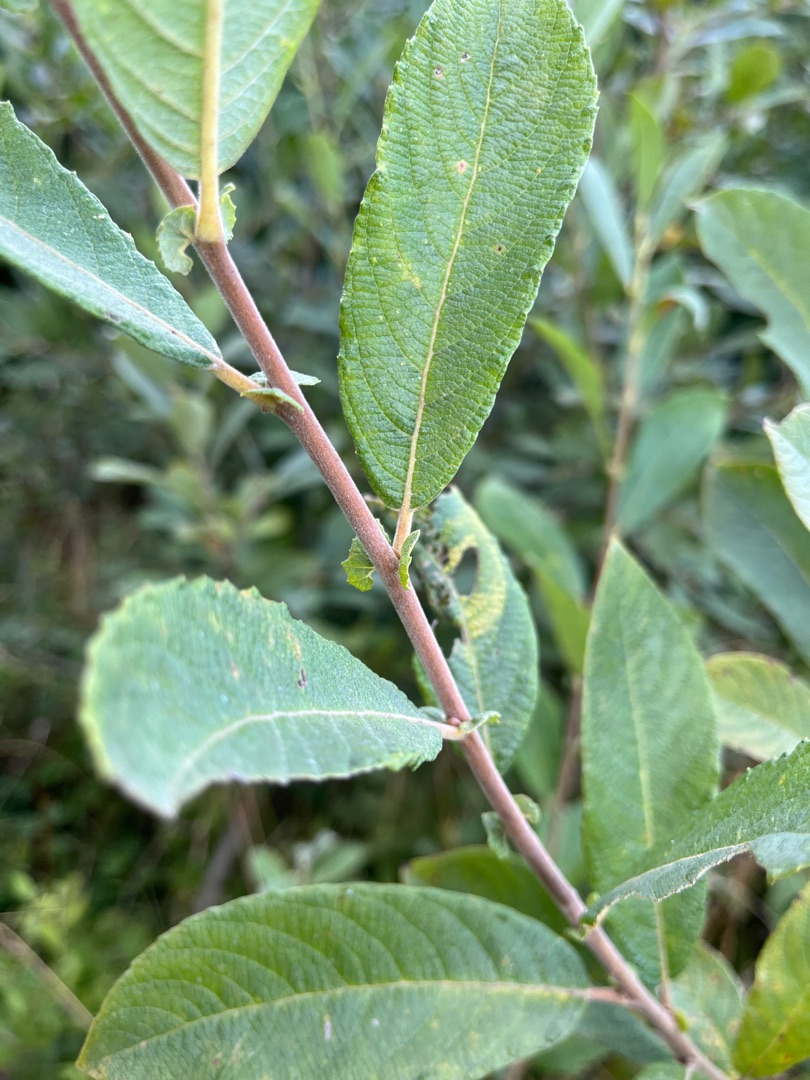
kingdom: Plantae
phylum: Tracheophyta
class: Magnoliopsida
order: Malpighiales
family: Salicaceae
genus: Salix
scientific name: Salix cinerea
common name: Grå-pil
